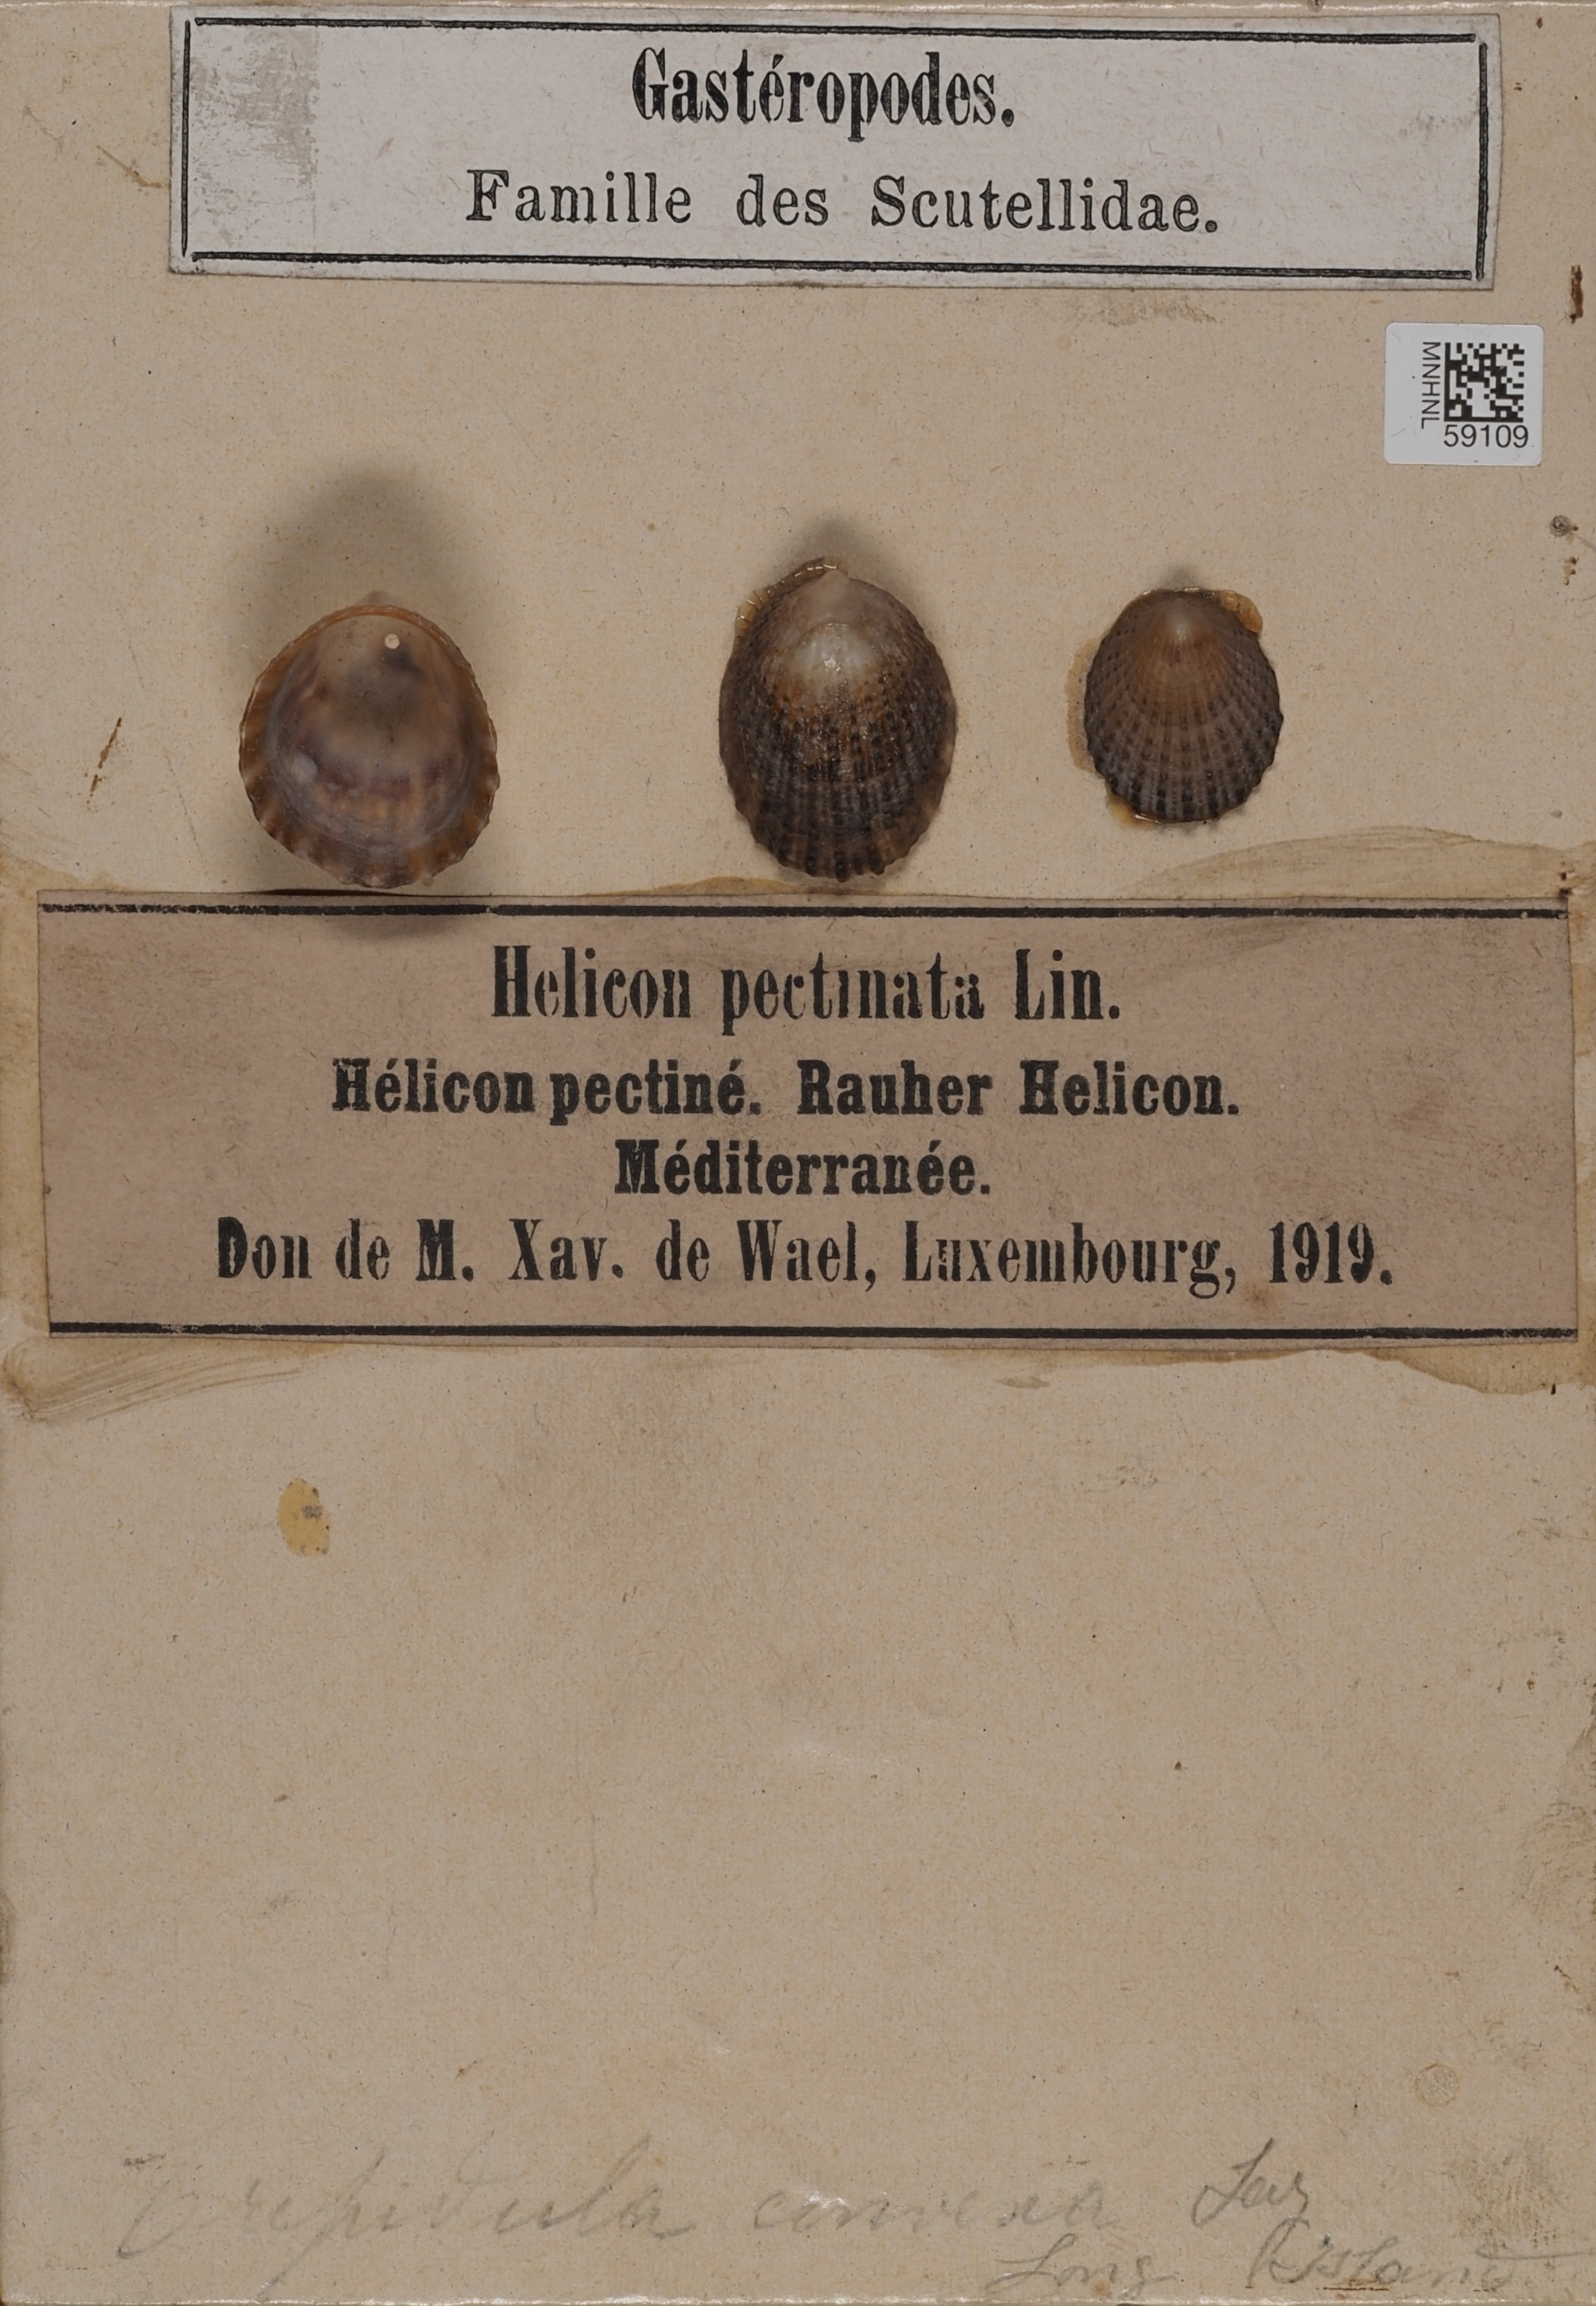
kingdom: Animalia
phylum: Mollusca
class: Gastropoda
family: Patellidae
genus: Helcion
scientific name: Helcion
